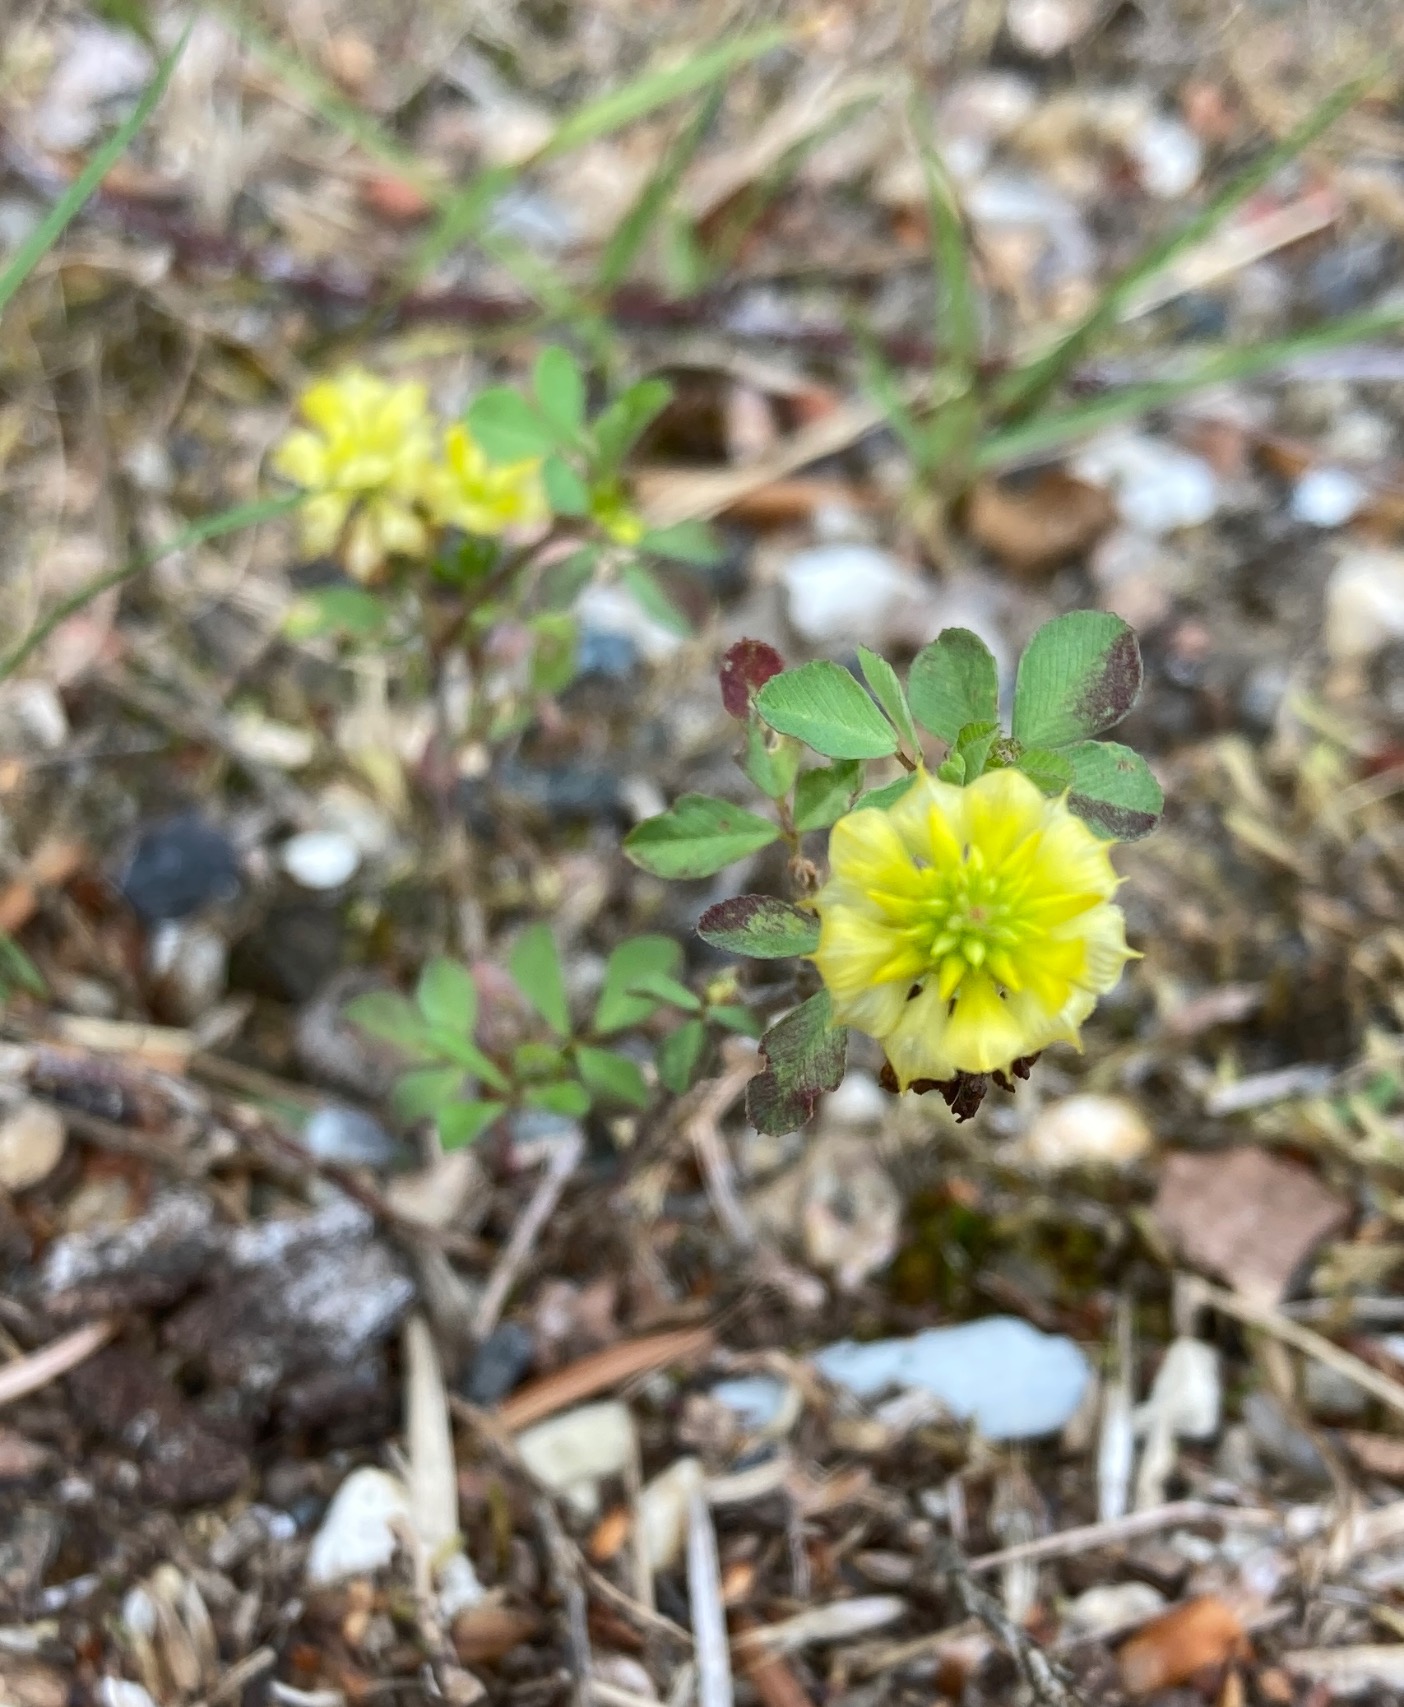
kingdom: Plantae
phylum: Tracheophyta
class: Magnoliopsida
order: Fabales
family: Fabaceae
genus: Trifolium
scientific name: Trifolium campestre
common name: Gul kløver
